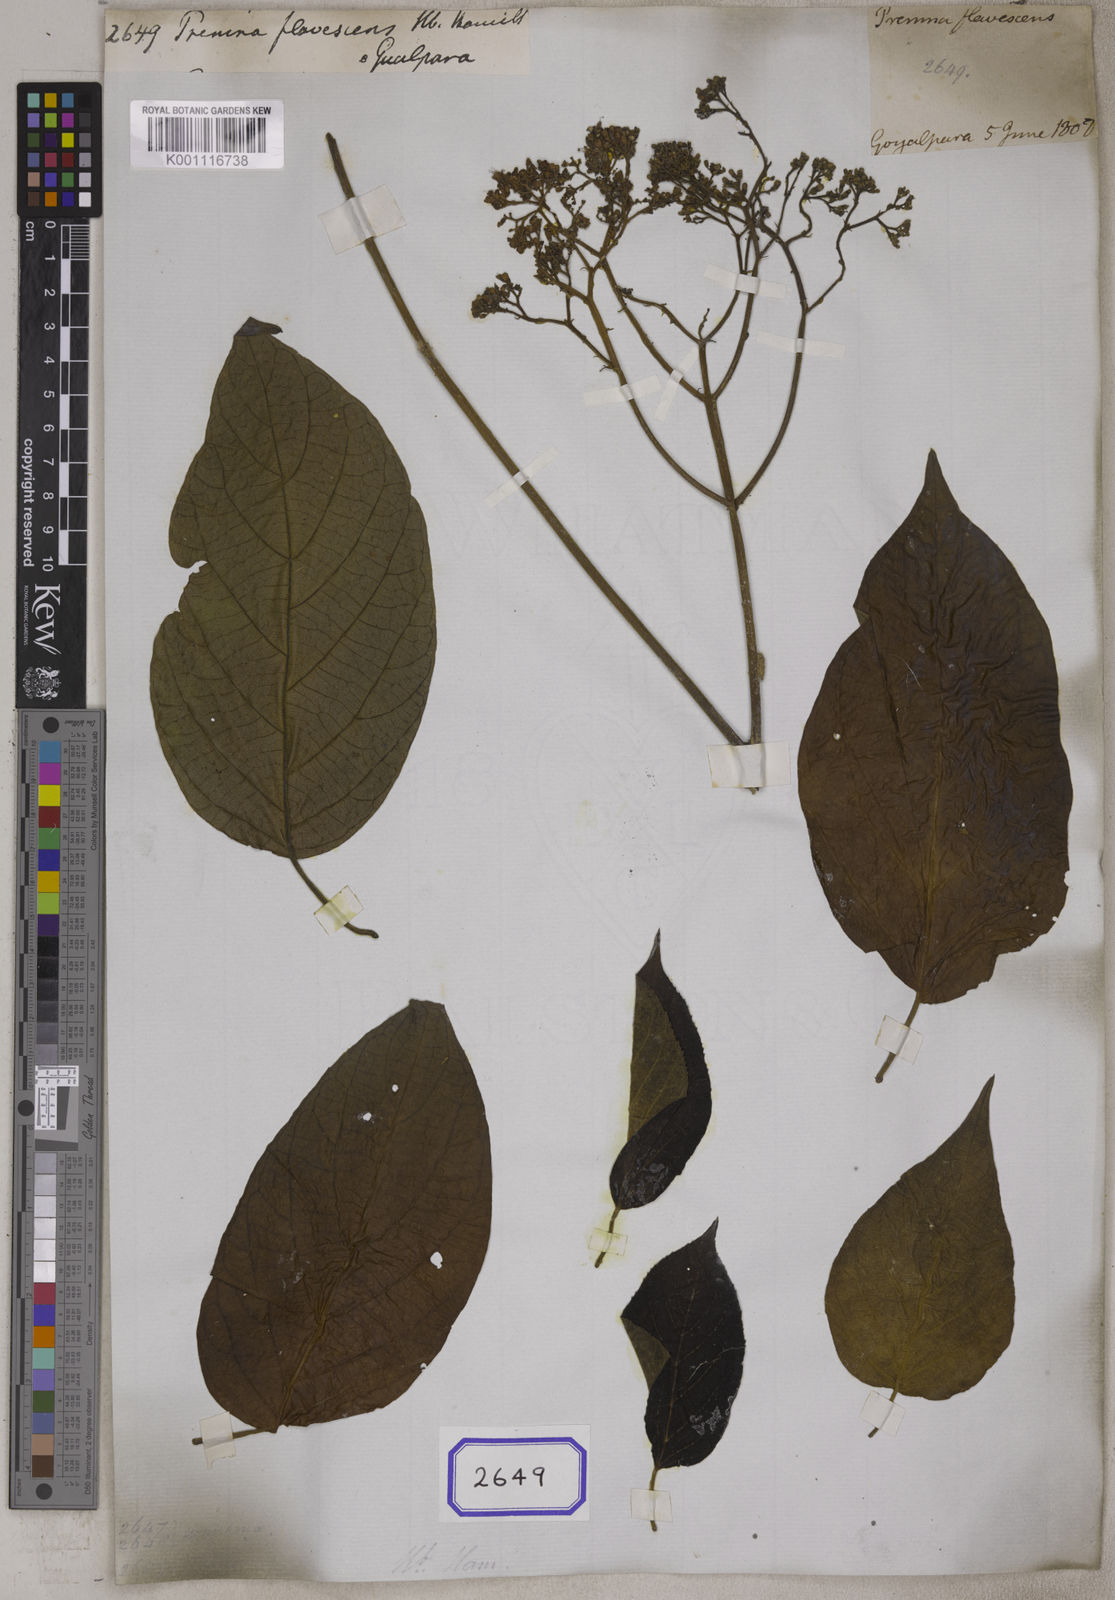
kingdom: Plantae
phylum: Tracheophyta
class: Magnoliopsida
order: Lamiales
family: Lamiaceae
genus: Premna
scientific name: Premna
